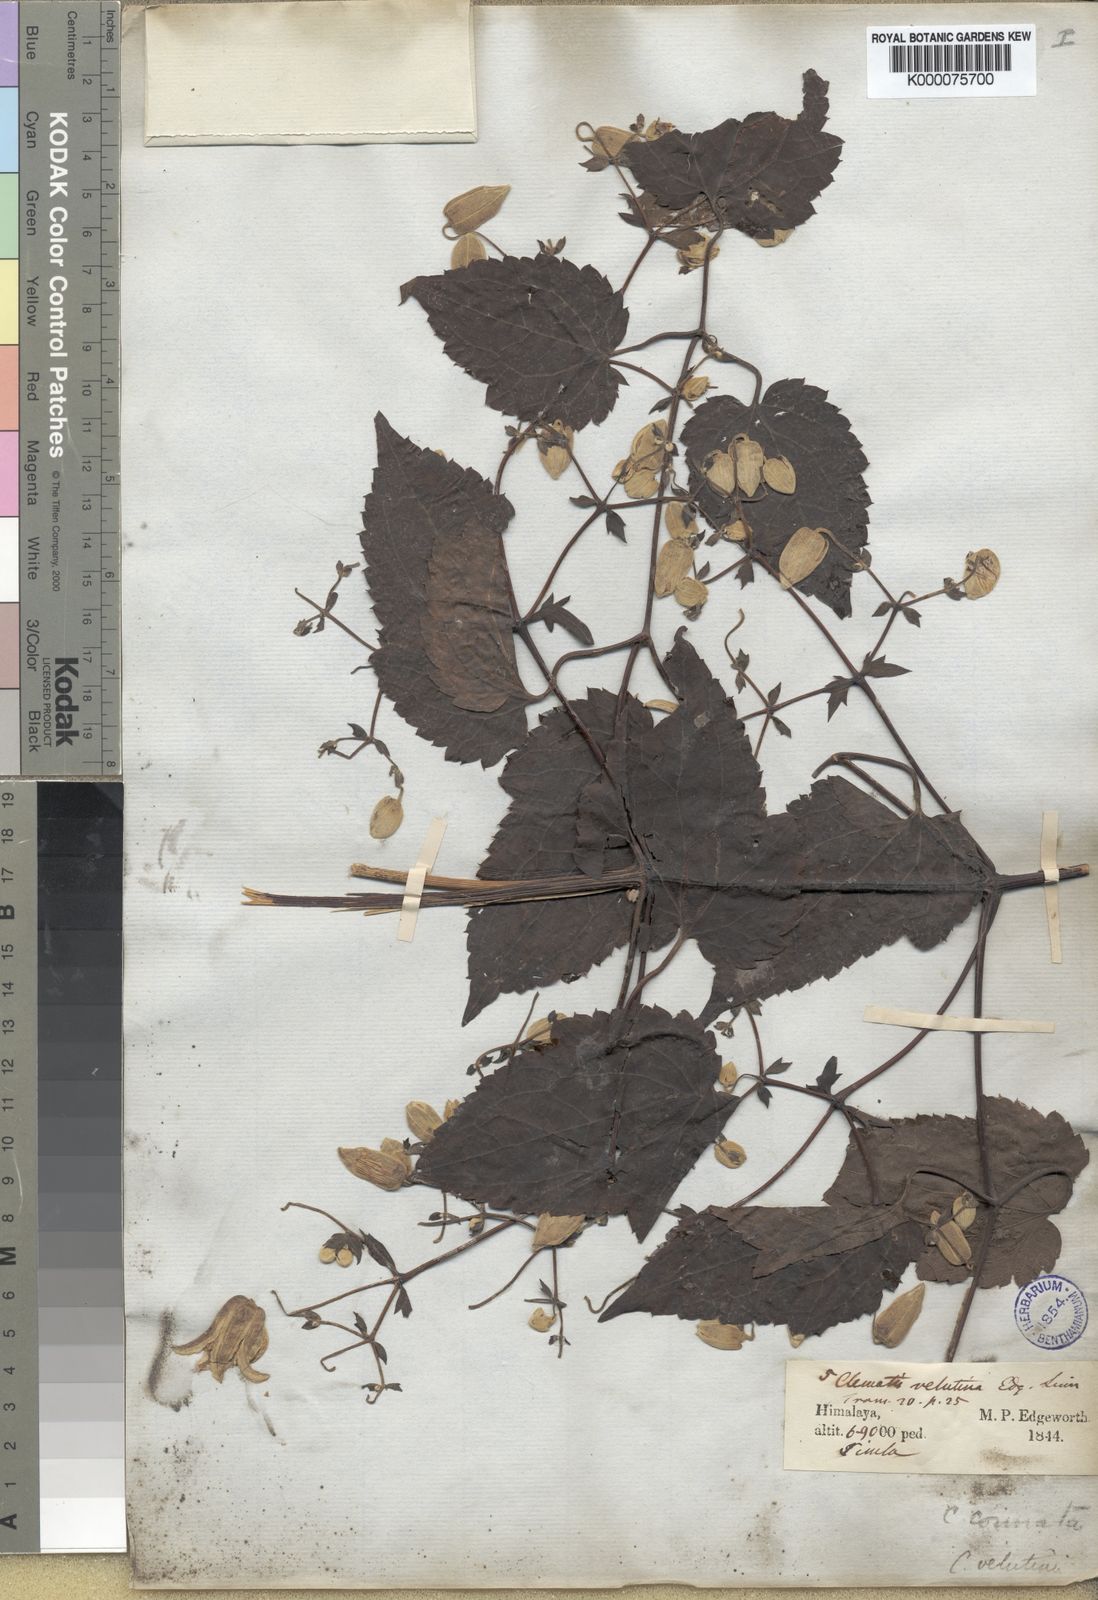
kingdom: Plantae
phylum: Tracheophyta
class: Magnoliopsida
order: Ranunculales
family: Ranunculaceae
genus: Clematis
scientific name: Clematis connata
